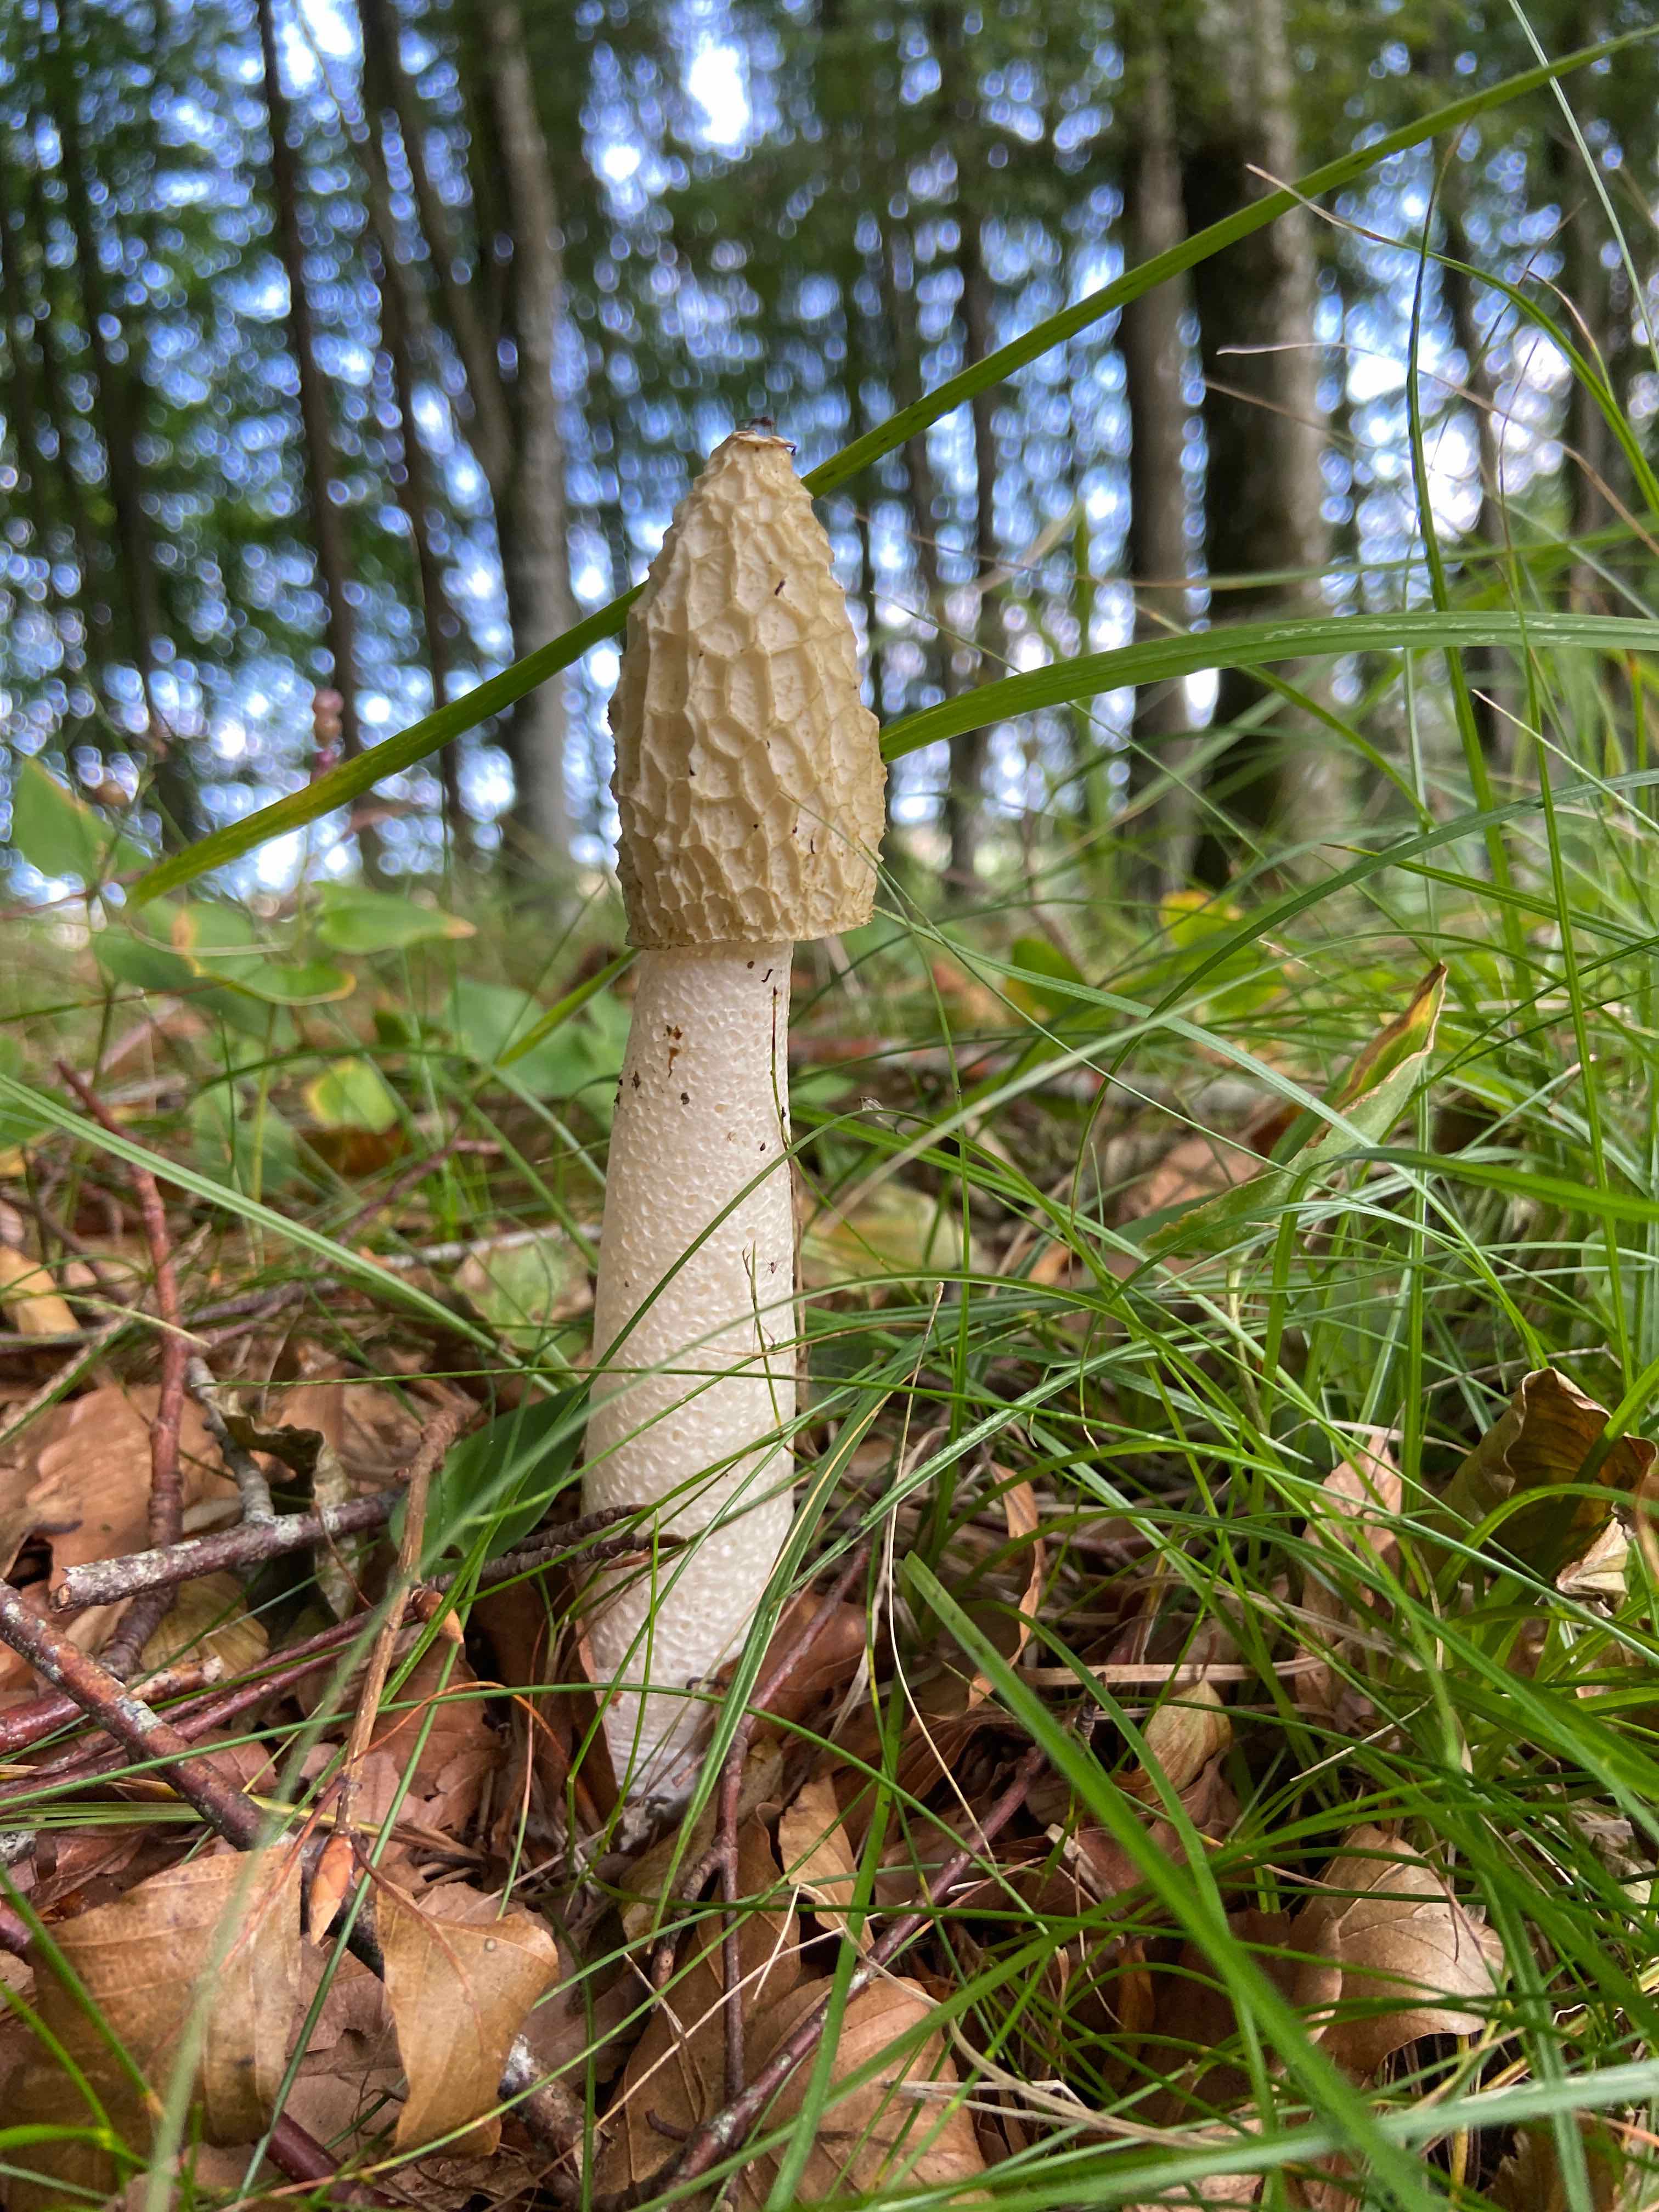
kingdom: Fungi
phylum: Basidiomycota
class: Agaricomycetes
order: Phallales
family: Phallaceae
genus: Phallus
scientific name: Phallus impudicus
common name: almindelig stinksvamp
